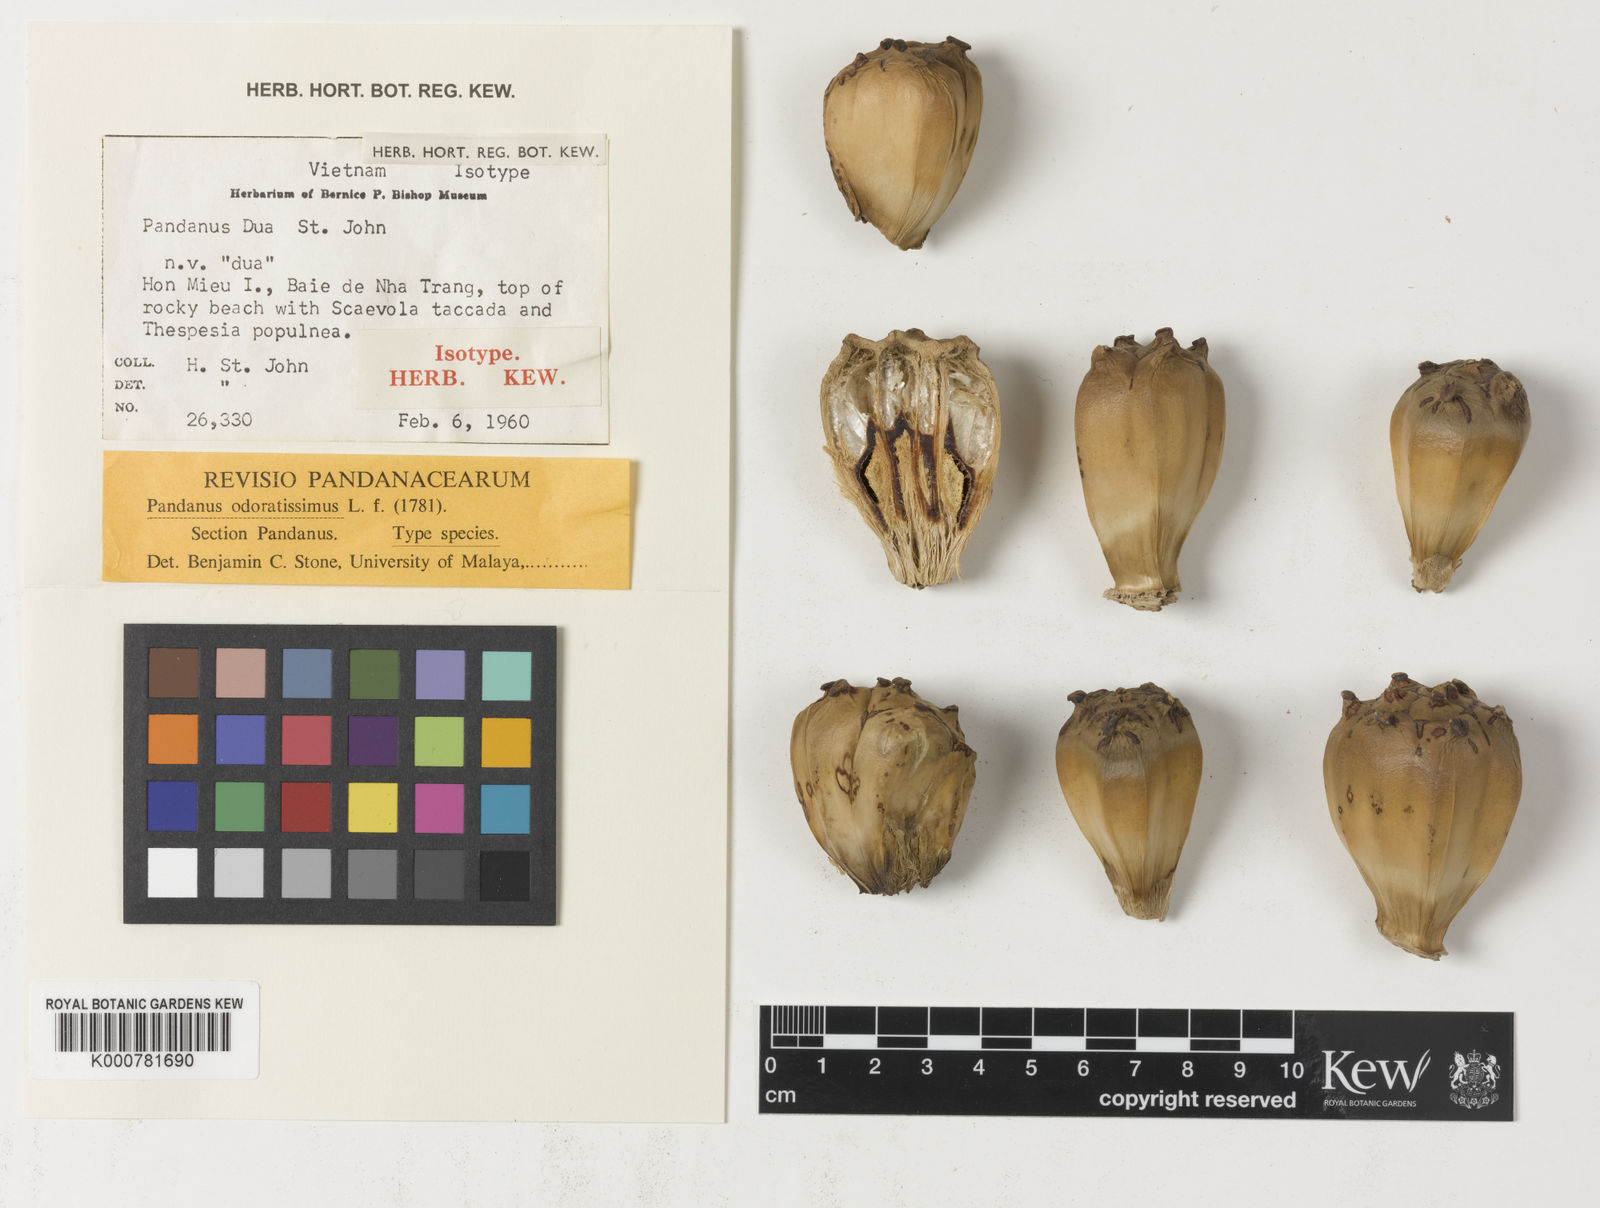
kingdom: Plantae
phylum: Tracheophyta
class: Liliopsida
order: Pandanales
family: Pandanaceae
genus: Pandanus
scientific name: Pandanus odorifer
